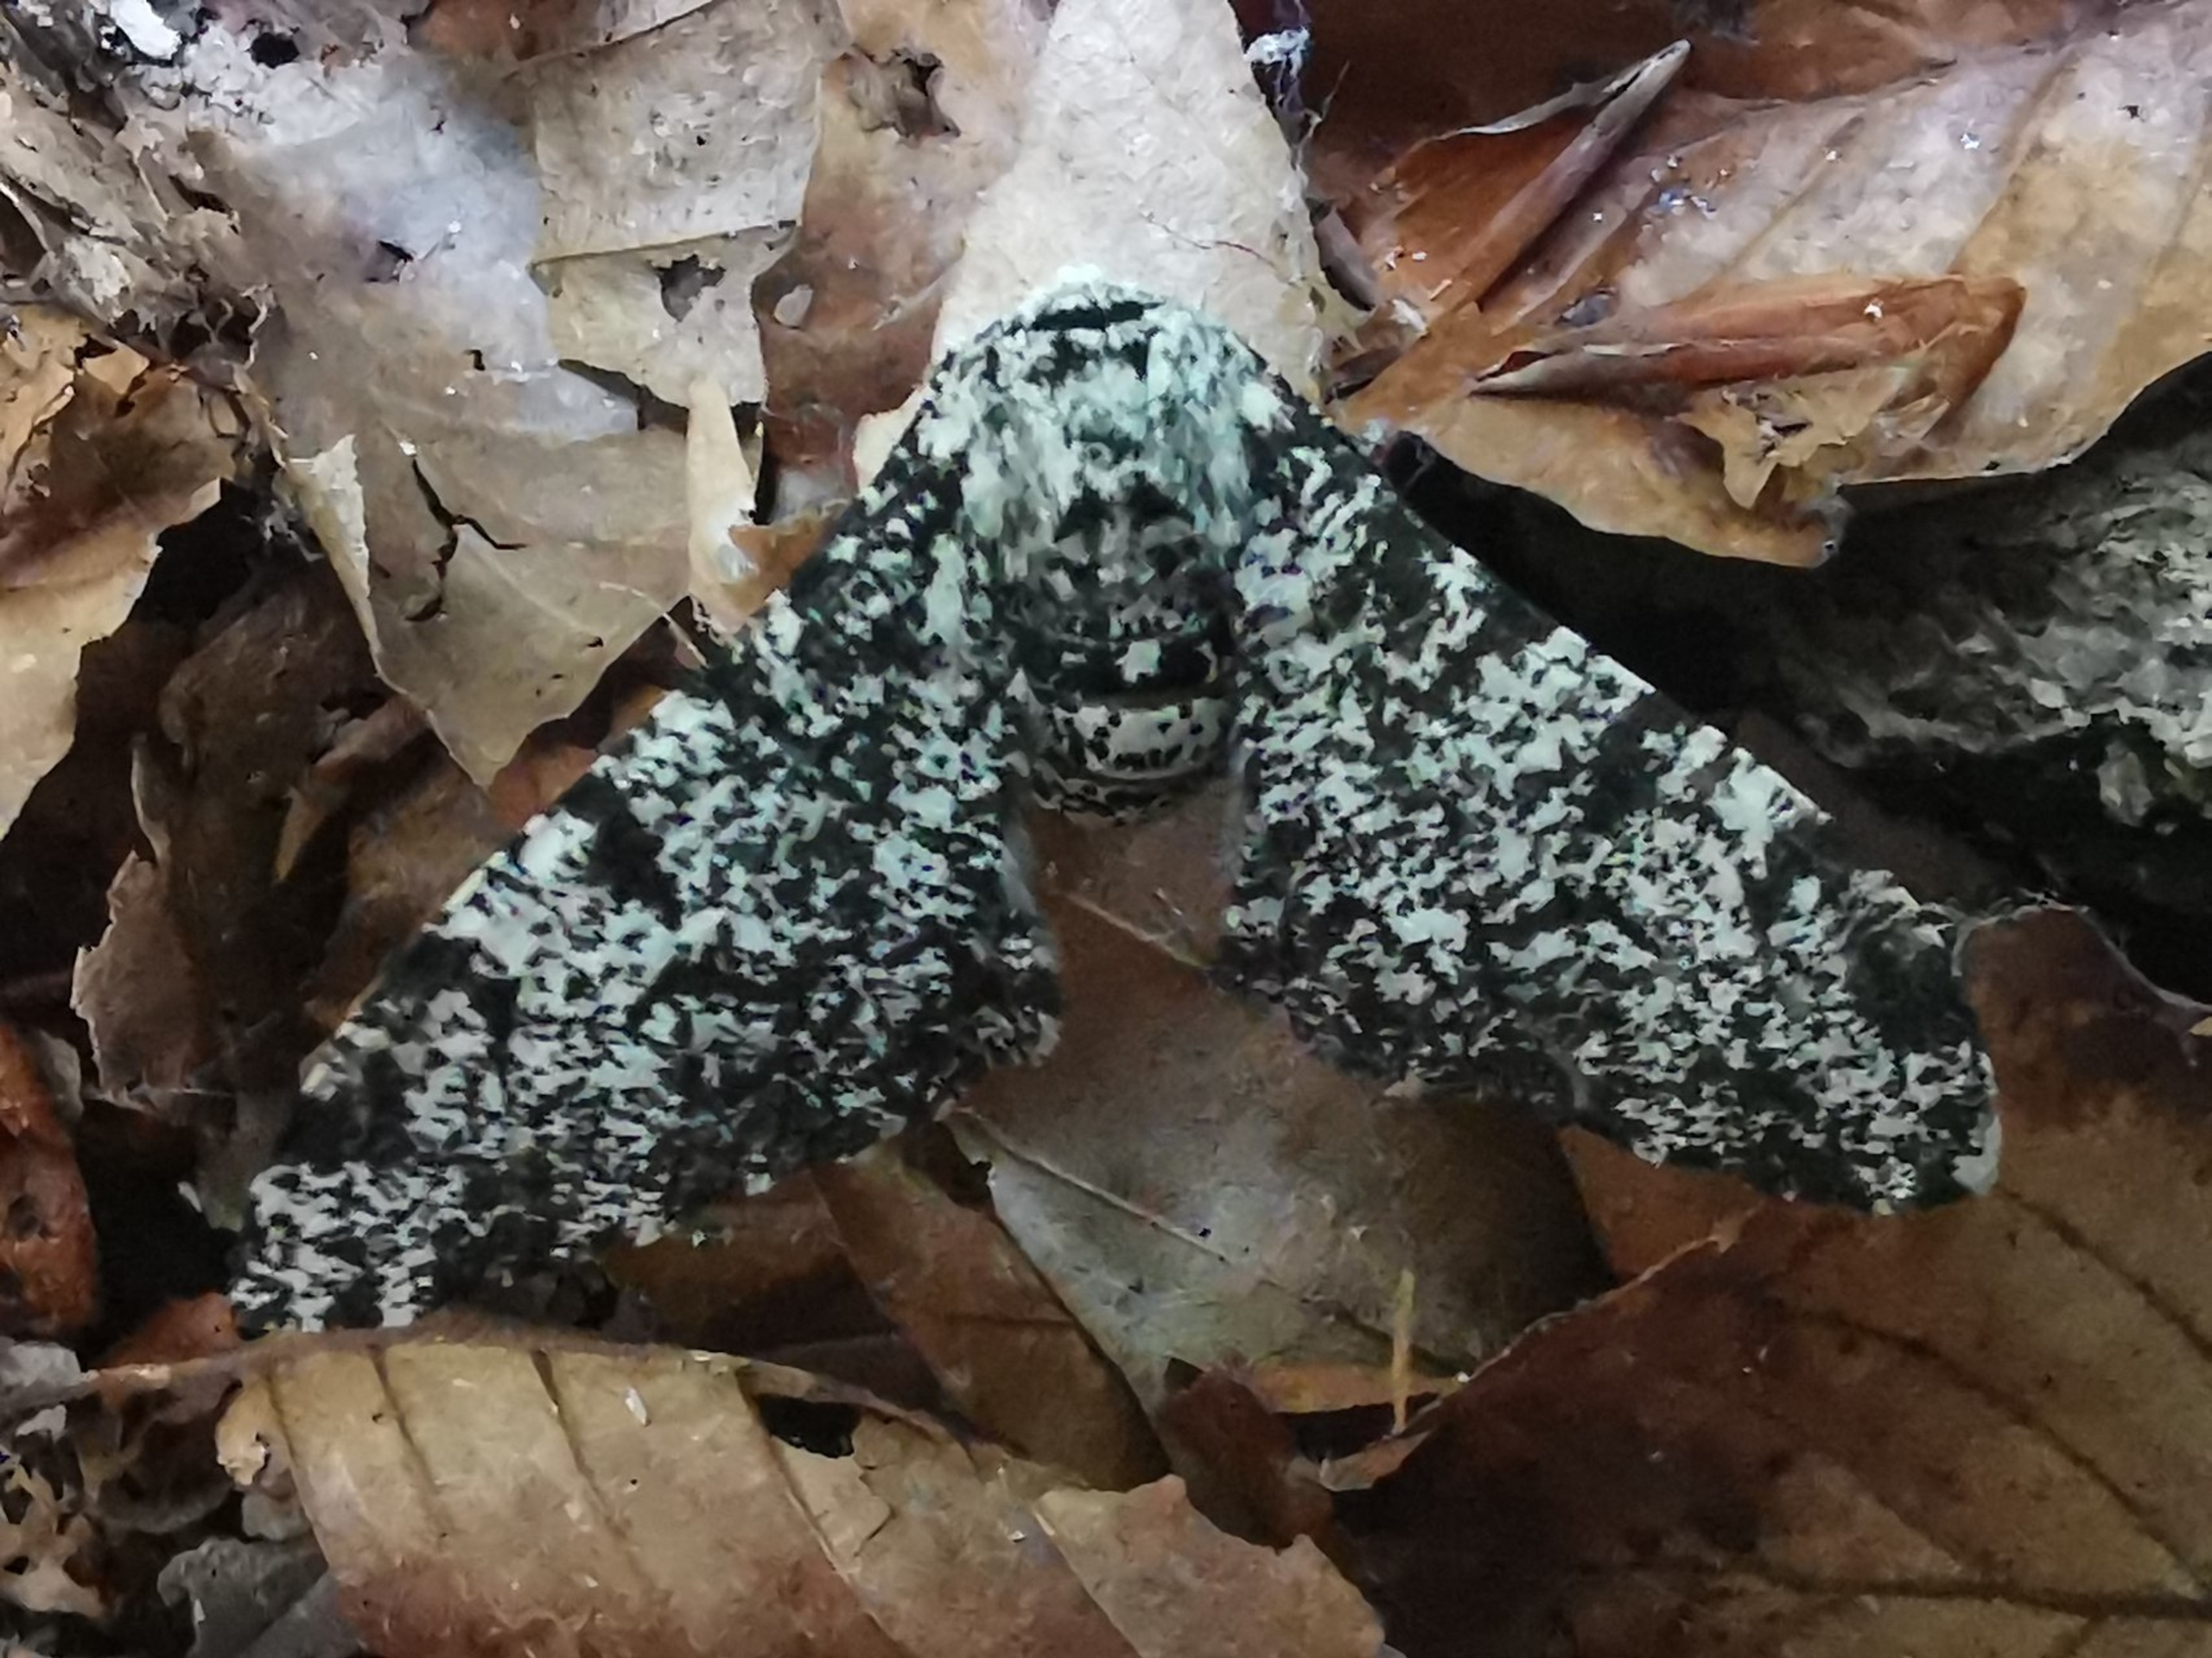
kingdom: Animalia
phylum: Arthropoda
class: Insecta
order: Lepidoptera
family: Geometridae
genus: Biston
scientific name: Biston betularia
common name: Birkemåler
